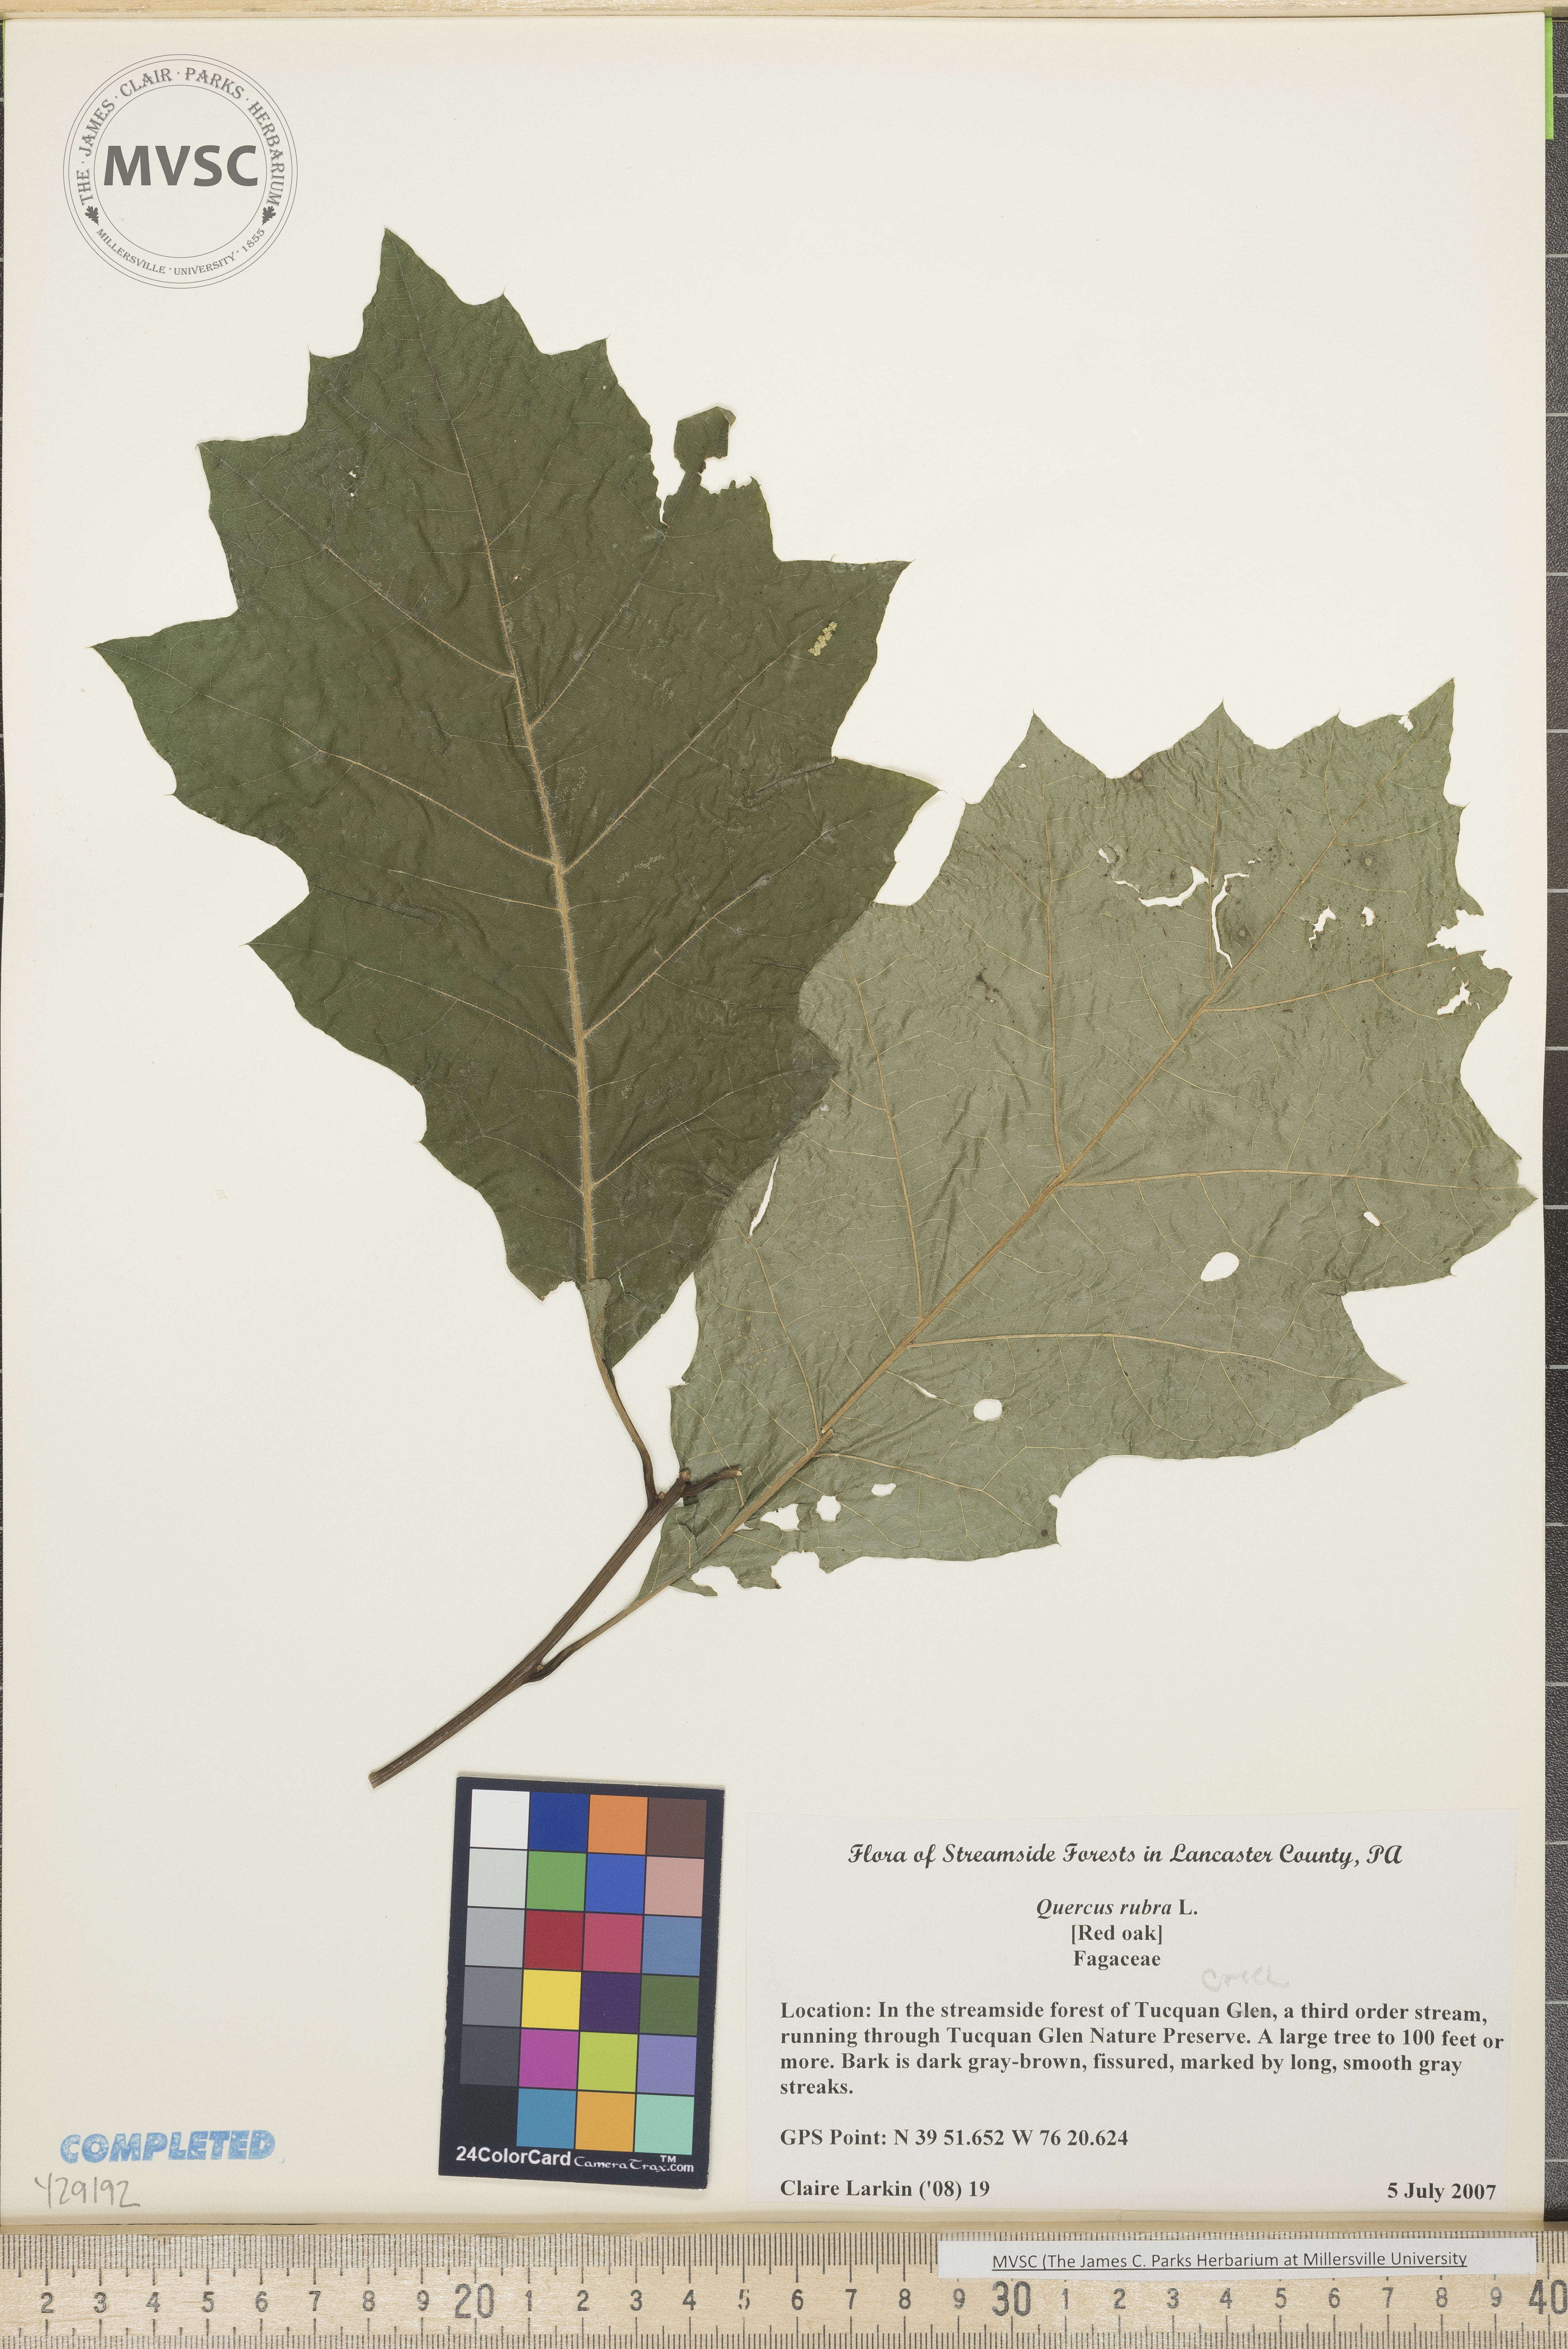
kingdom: Plantae
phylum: Tracheophyta
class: Magnoliopsida
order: Fagales
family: Fagaceae
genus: Quercus
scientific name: Quercus rubra
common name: Red oak
